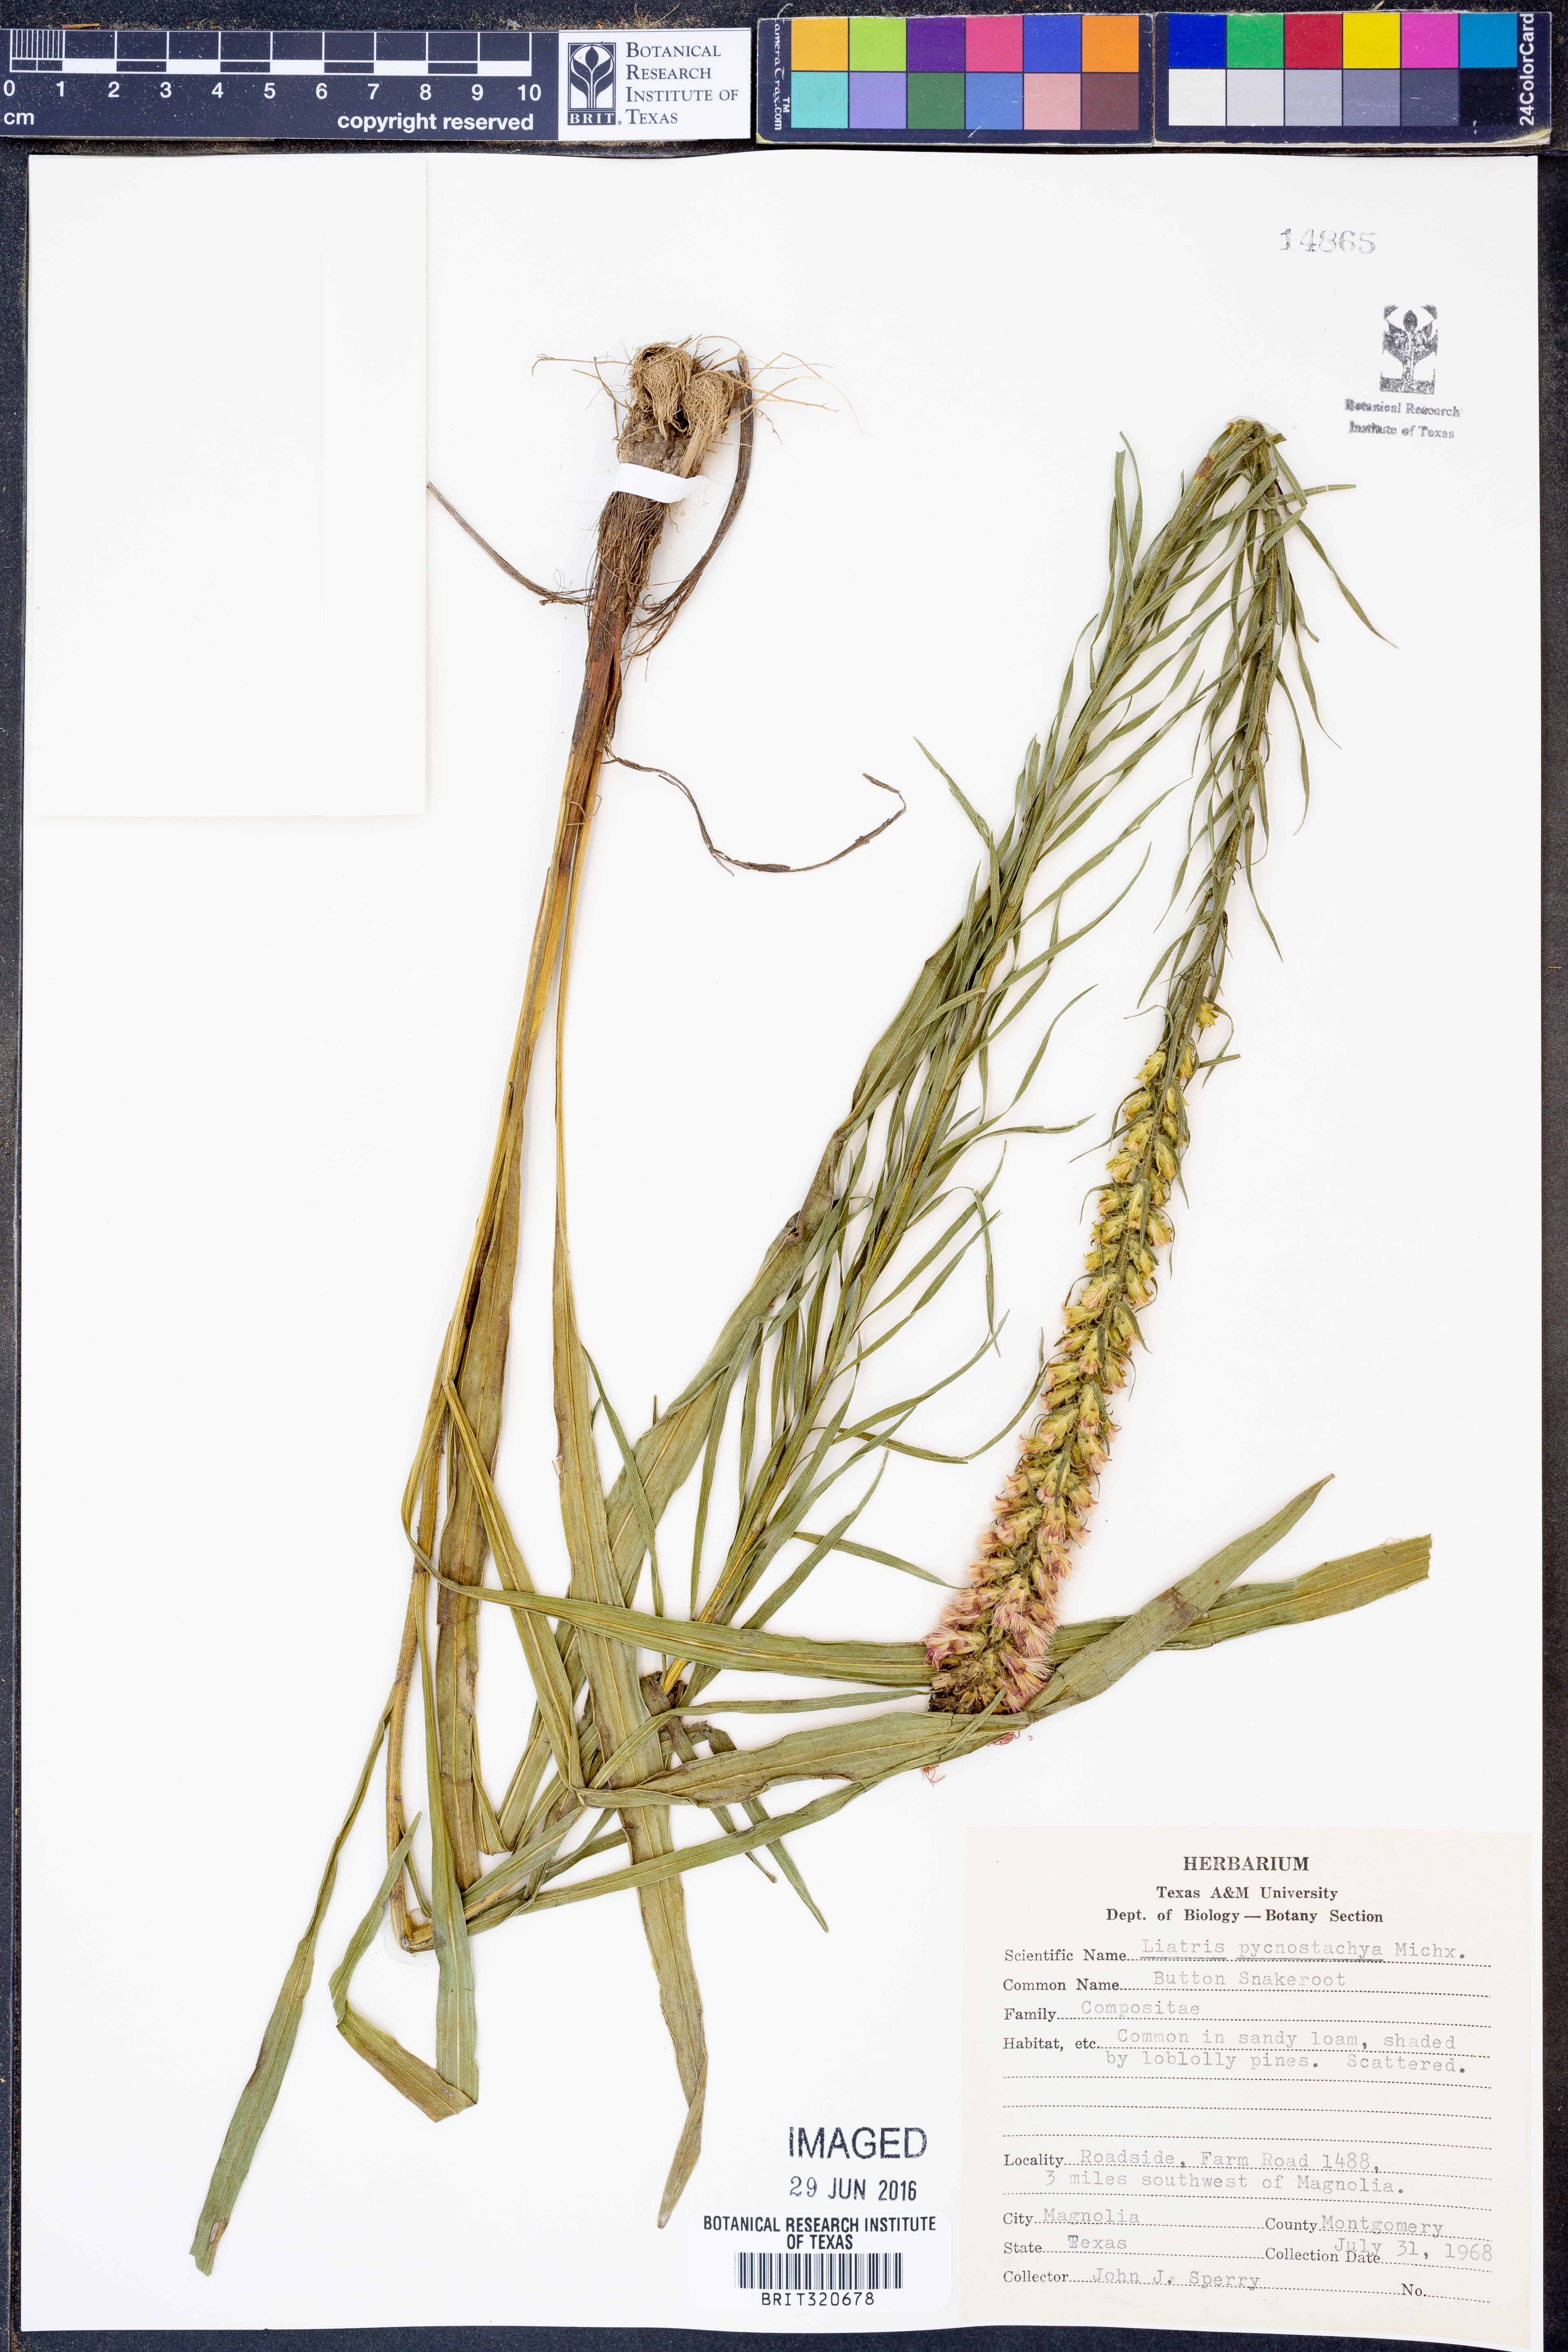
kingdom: Plantae
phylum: Tracheophyta
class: Magnoliopsida
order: Asterales
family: Asteraceae
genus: Liatris
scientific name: Liatris pycnostachya
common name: Cattail gayfeather
